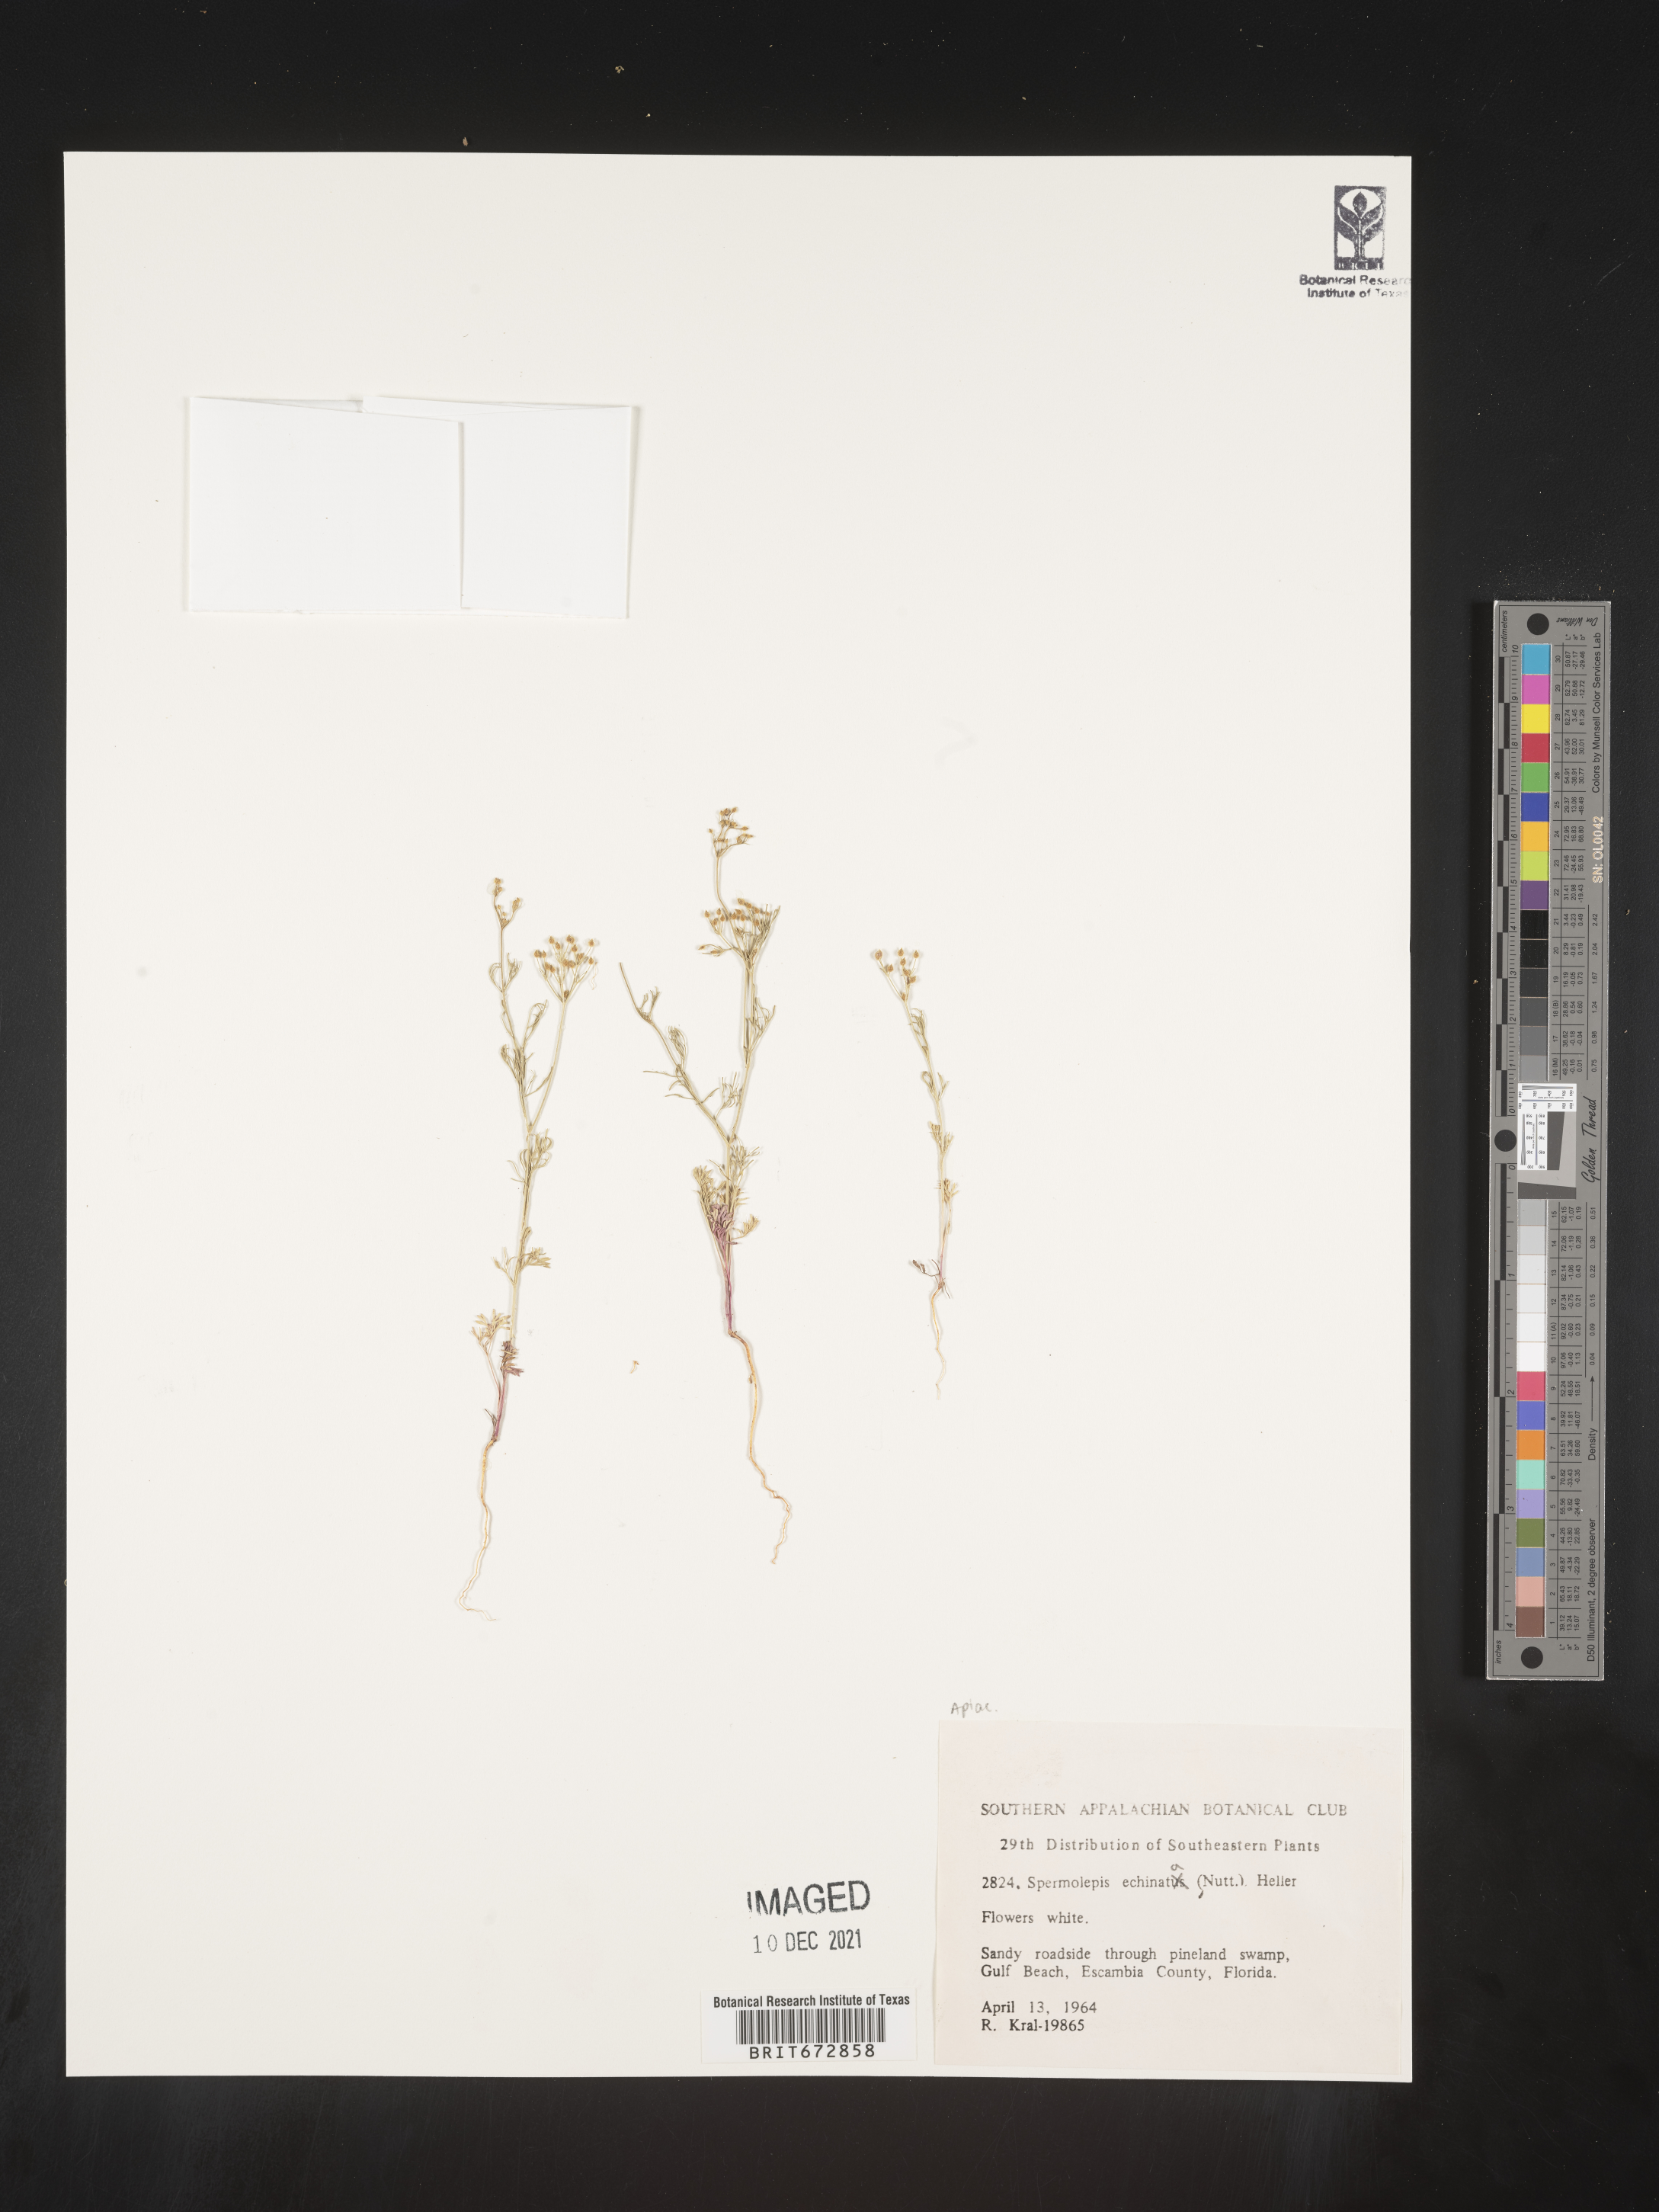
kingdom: Plantae
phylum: Tracheophyta
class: Magnoliopsida
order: Apiales
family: Apiaceae
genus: Spermolepis
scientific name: Spermolepis echinata
